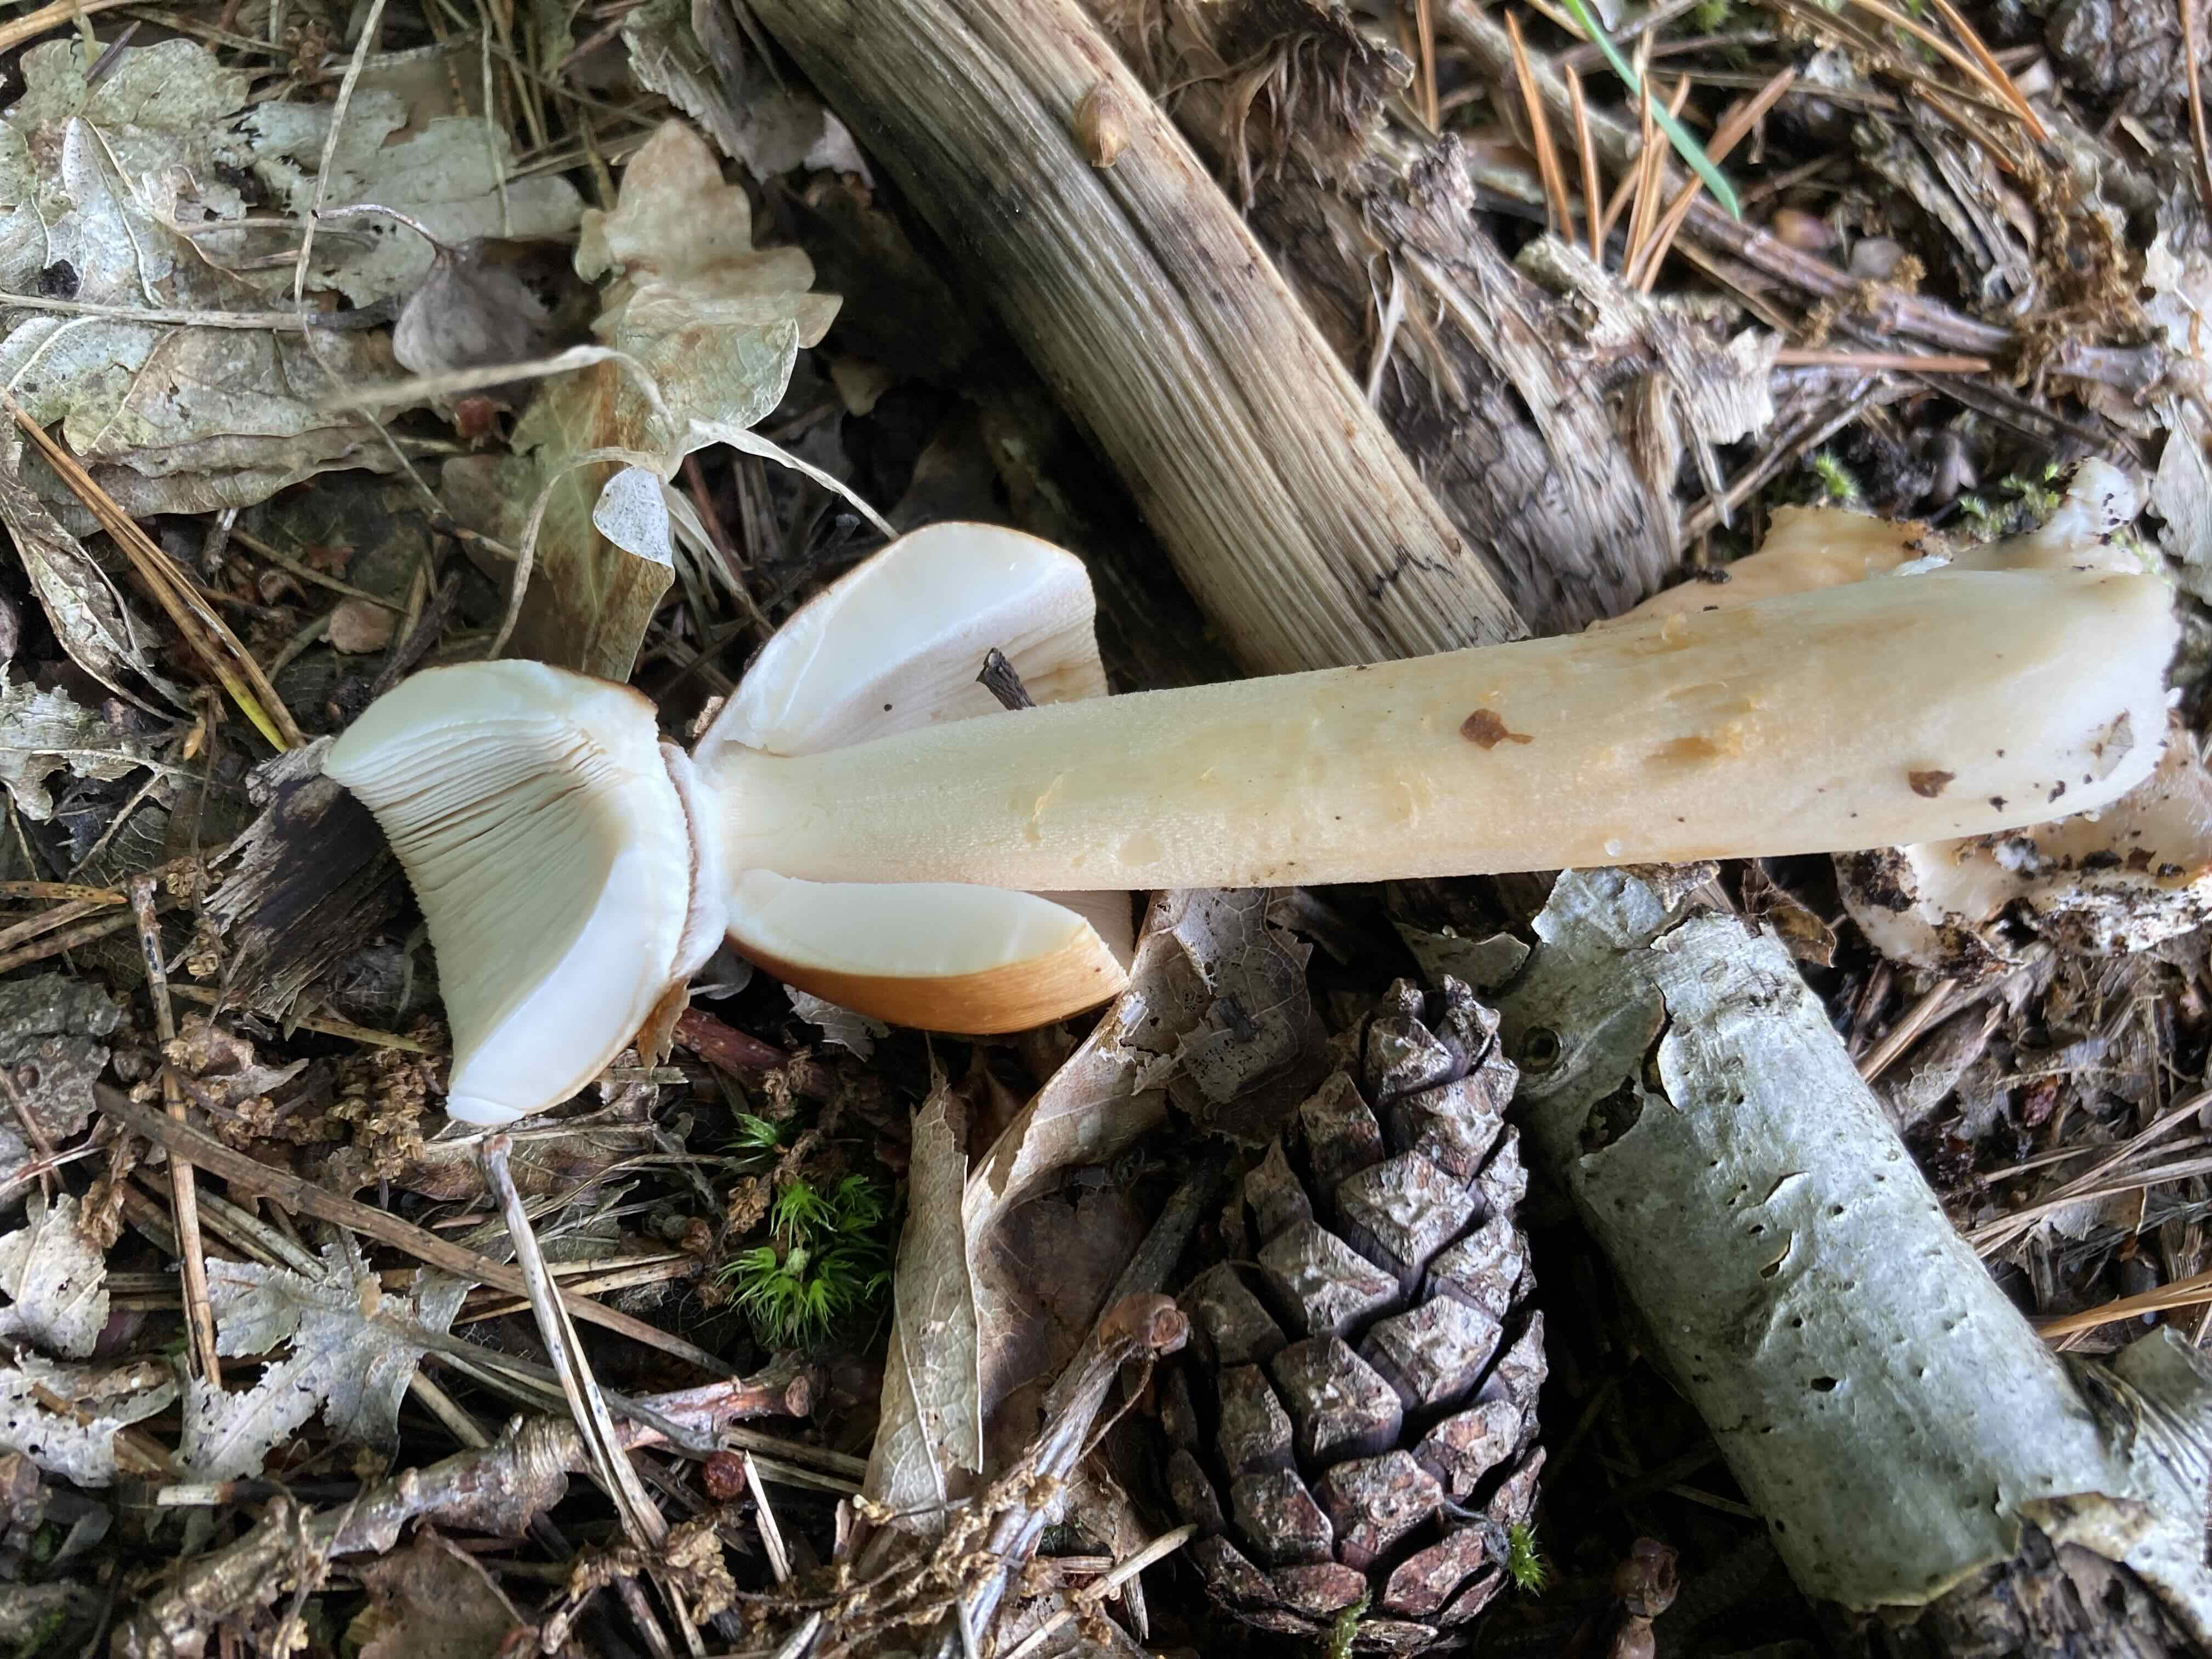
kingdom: Fungi
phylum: Basidiomycota
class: Agaricomycetes
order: Agaricales
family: Amanitaceae
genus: Amanita
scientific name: Amanita fulva
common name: brun kam-fluesvamp
